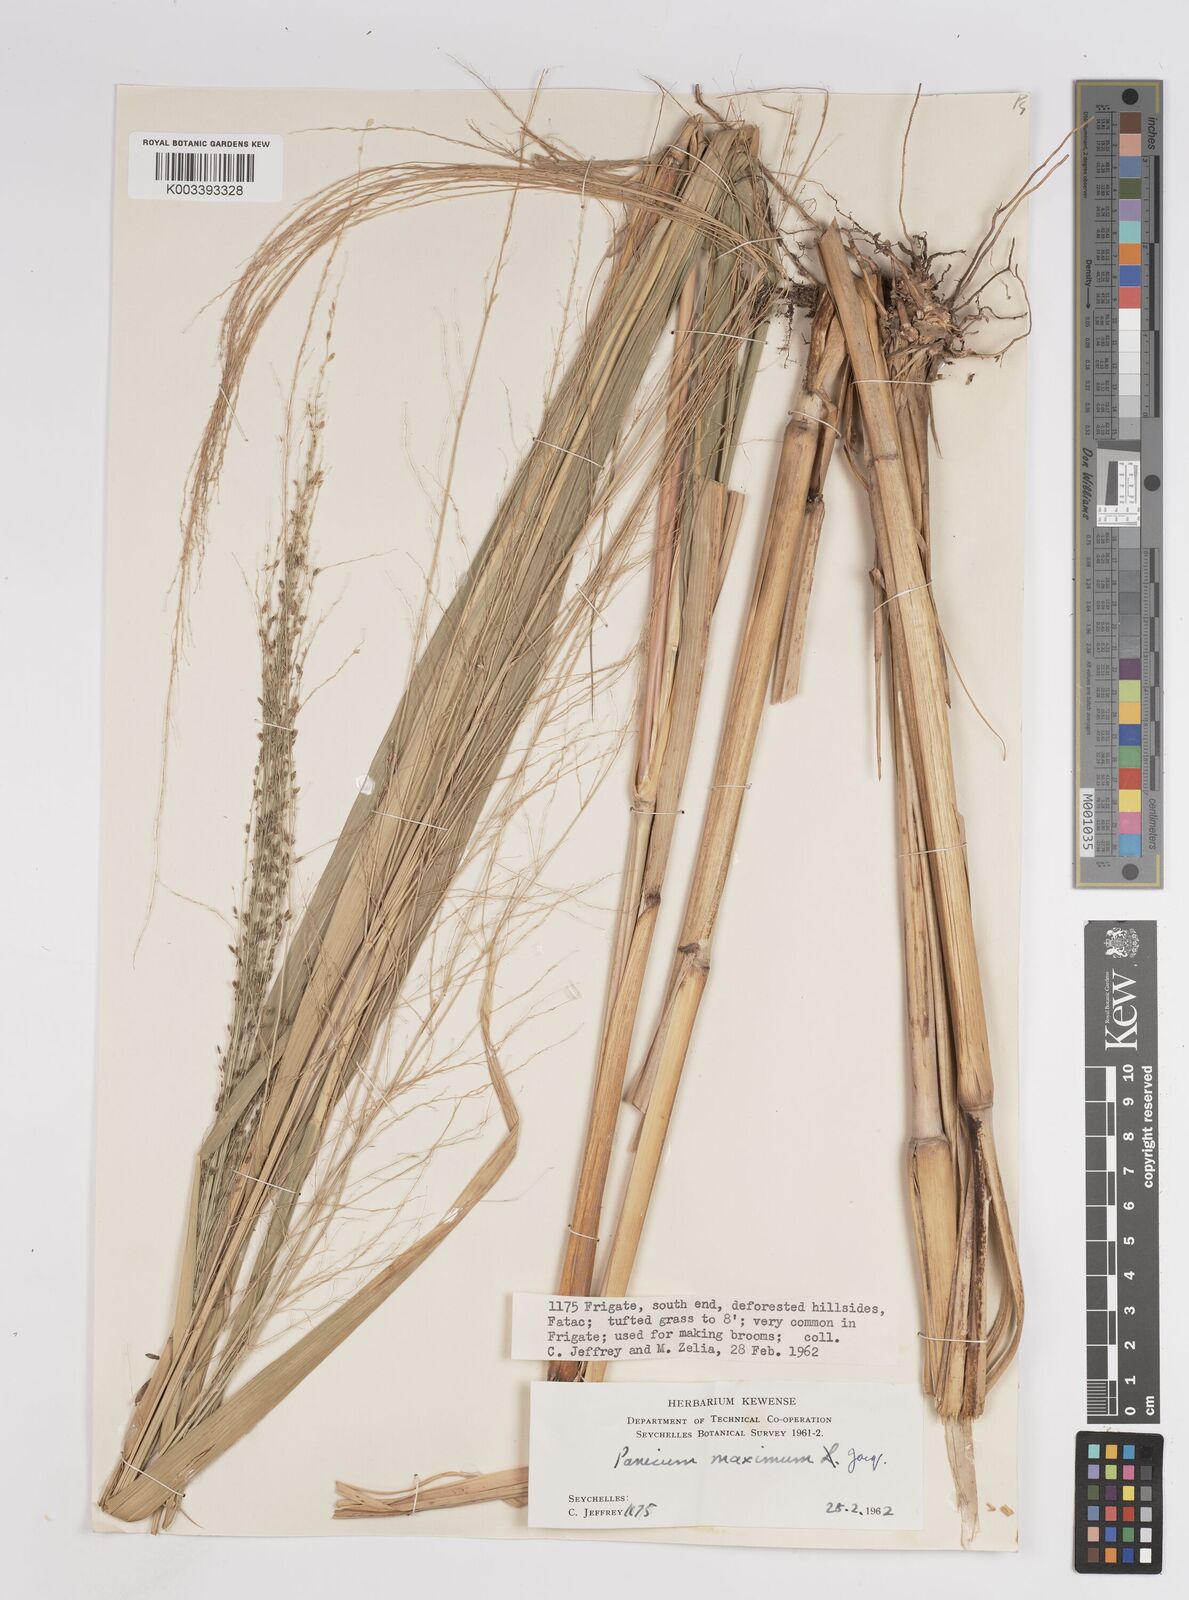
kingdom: Plantae
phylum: Tracheophyta
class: Liliopsida
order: Poales
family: Poaceae
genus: Megathyrsus
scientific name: Megathyrsus maximus
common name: Guineagrass
